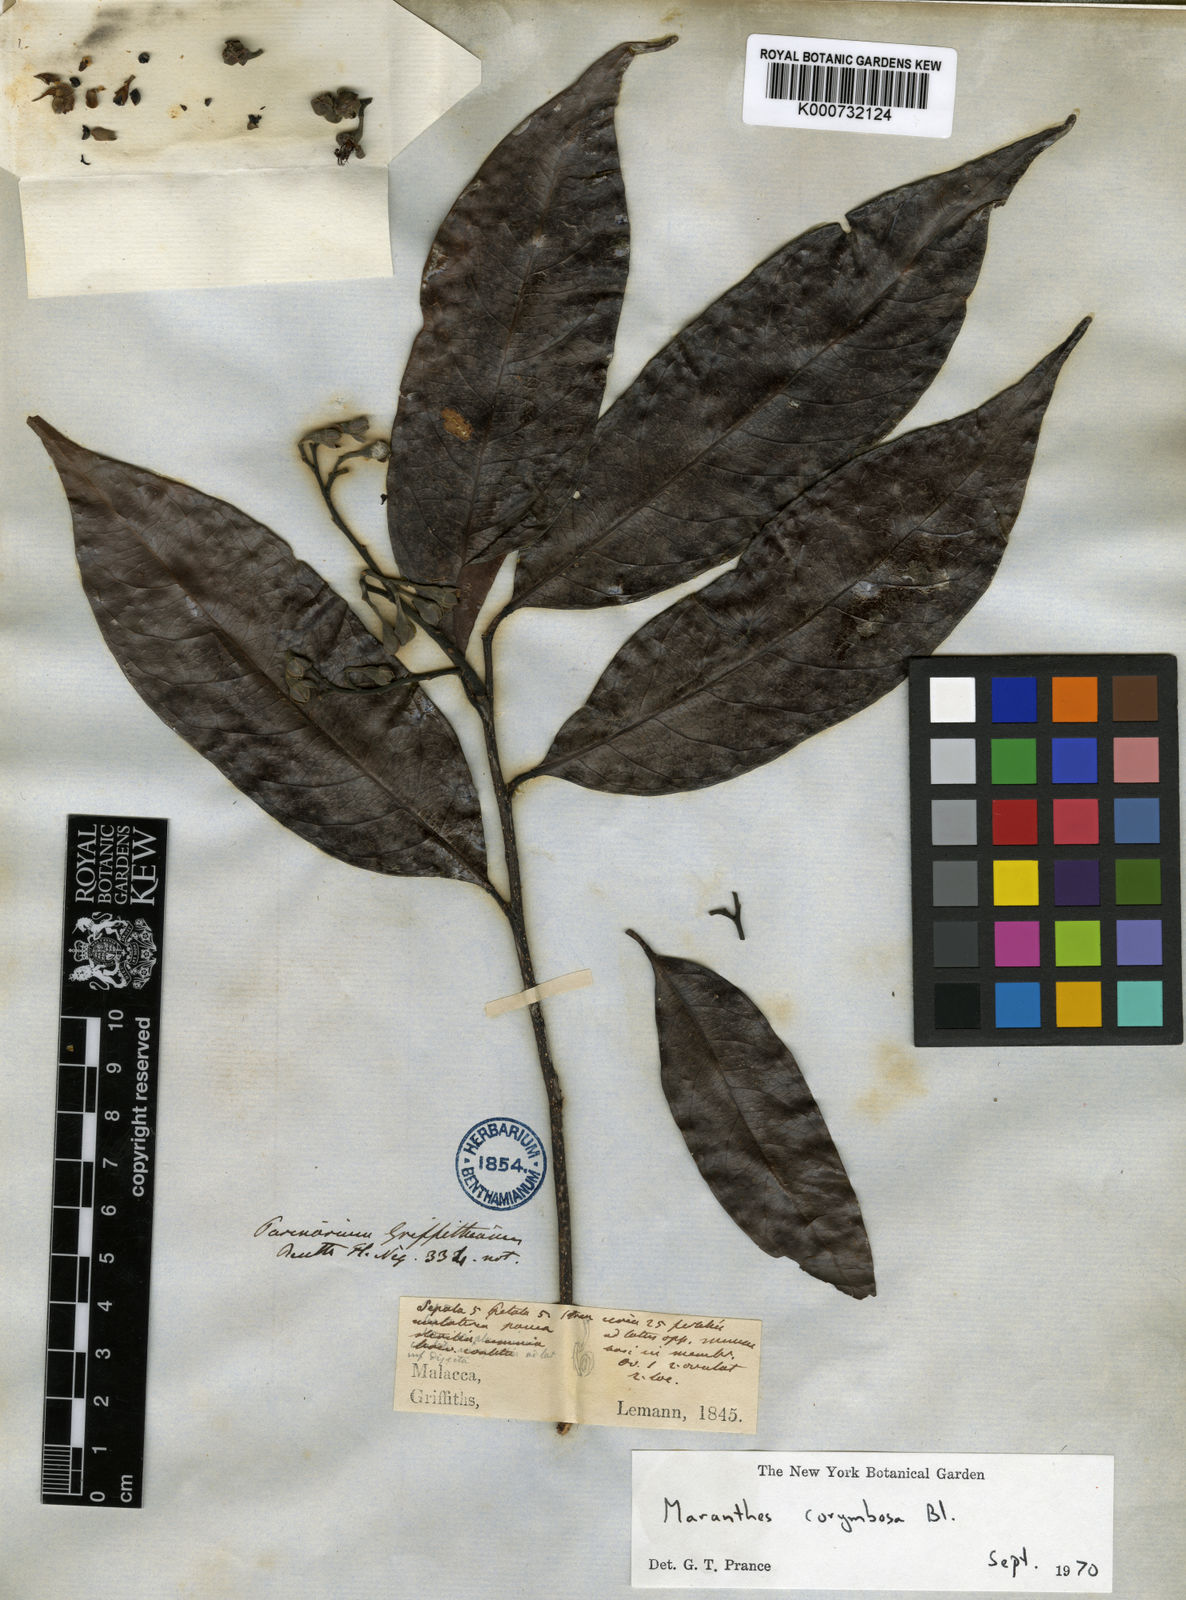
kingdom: Plantae
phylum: Tracheophyta
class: Magnoliopsida
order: Malpighiales
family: Chrysobalanaceae
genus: Maranthes
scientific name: Maranthes corymbosa
